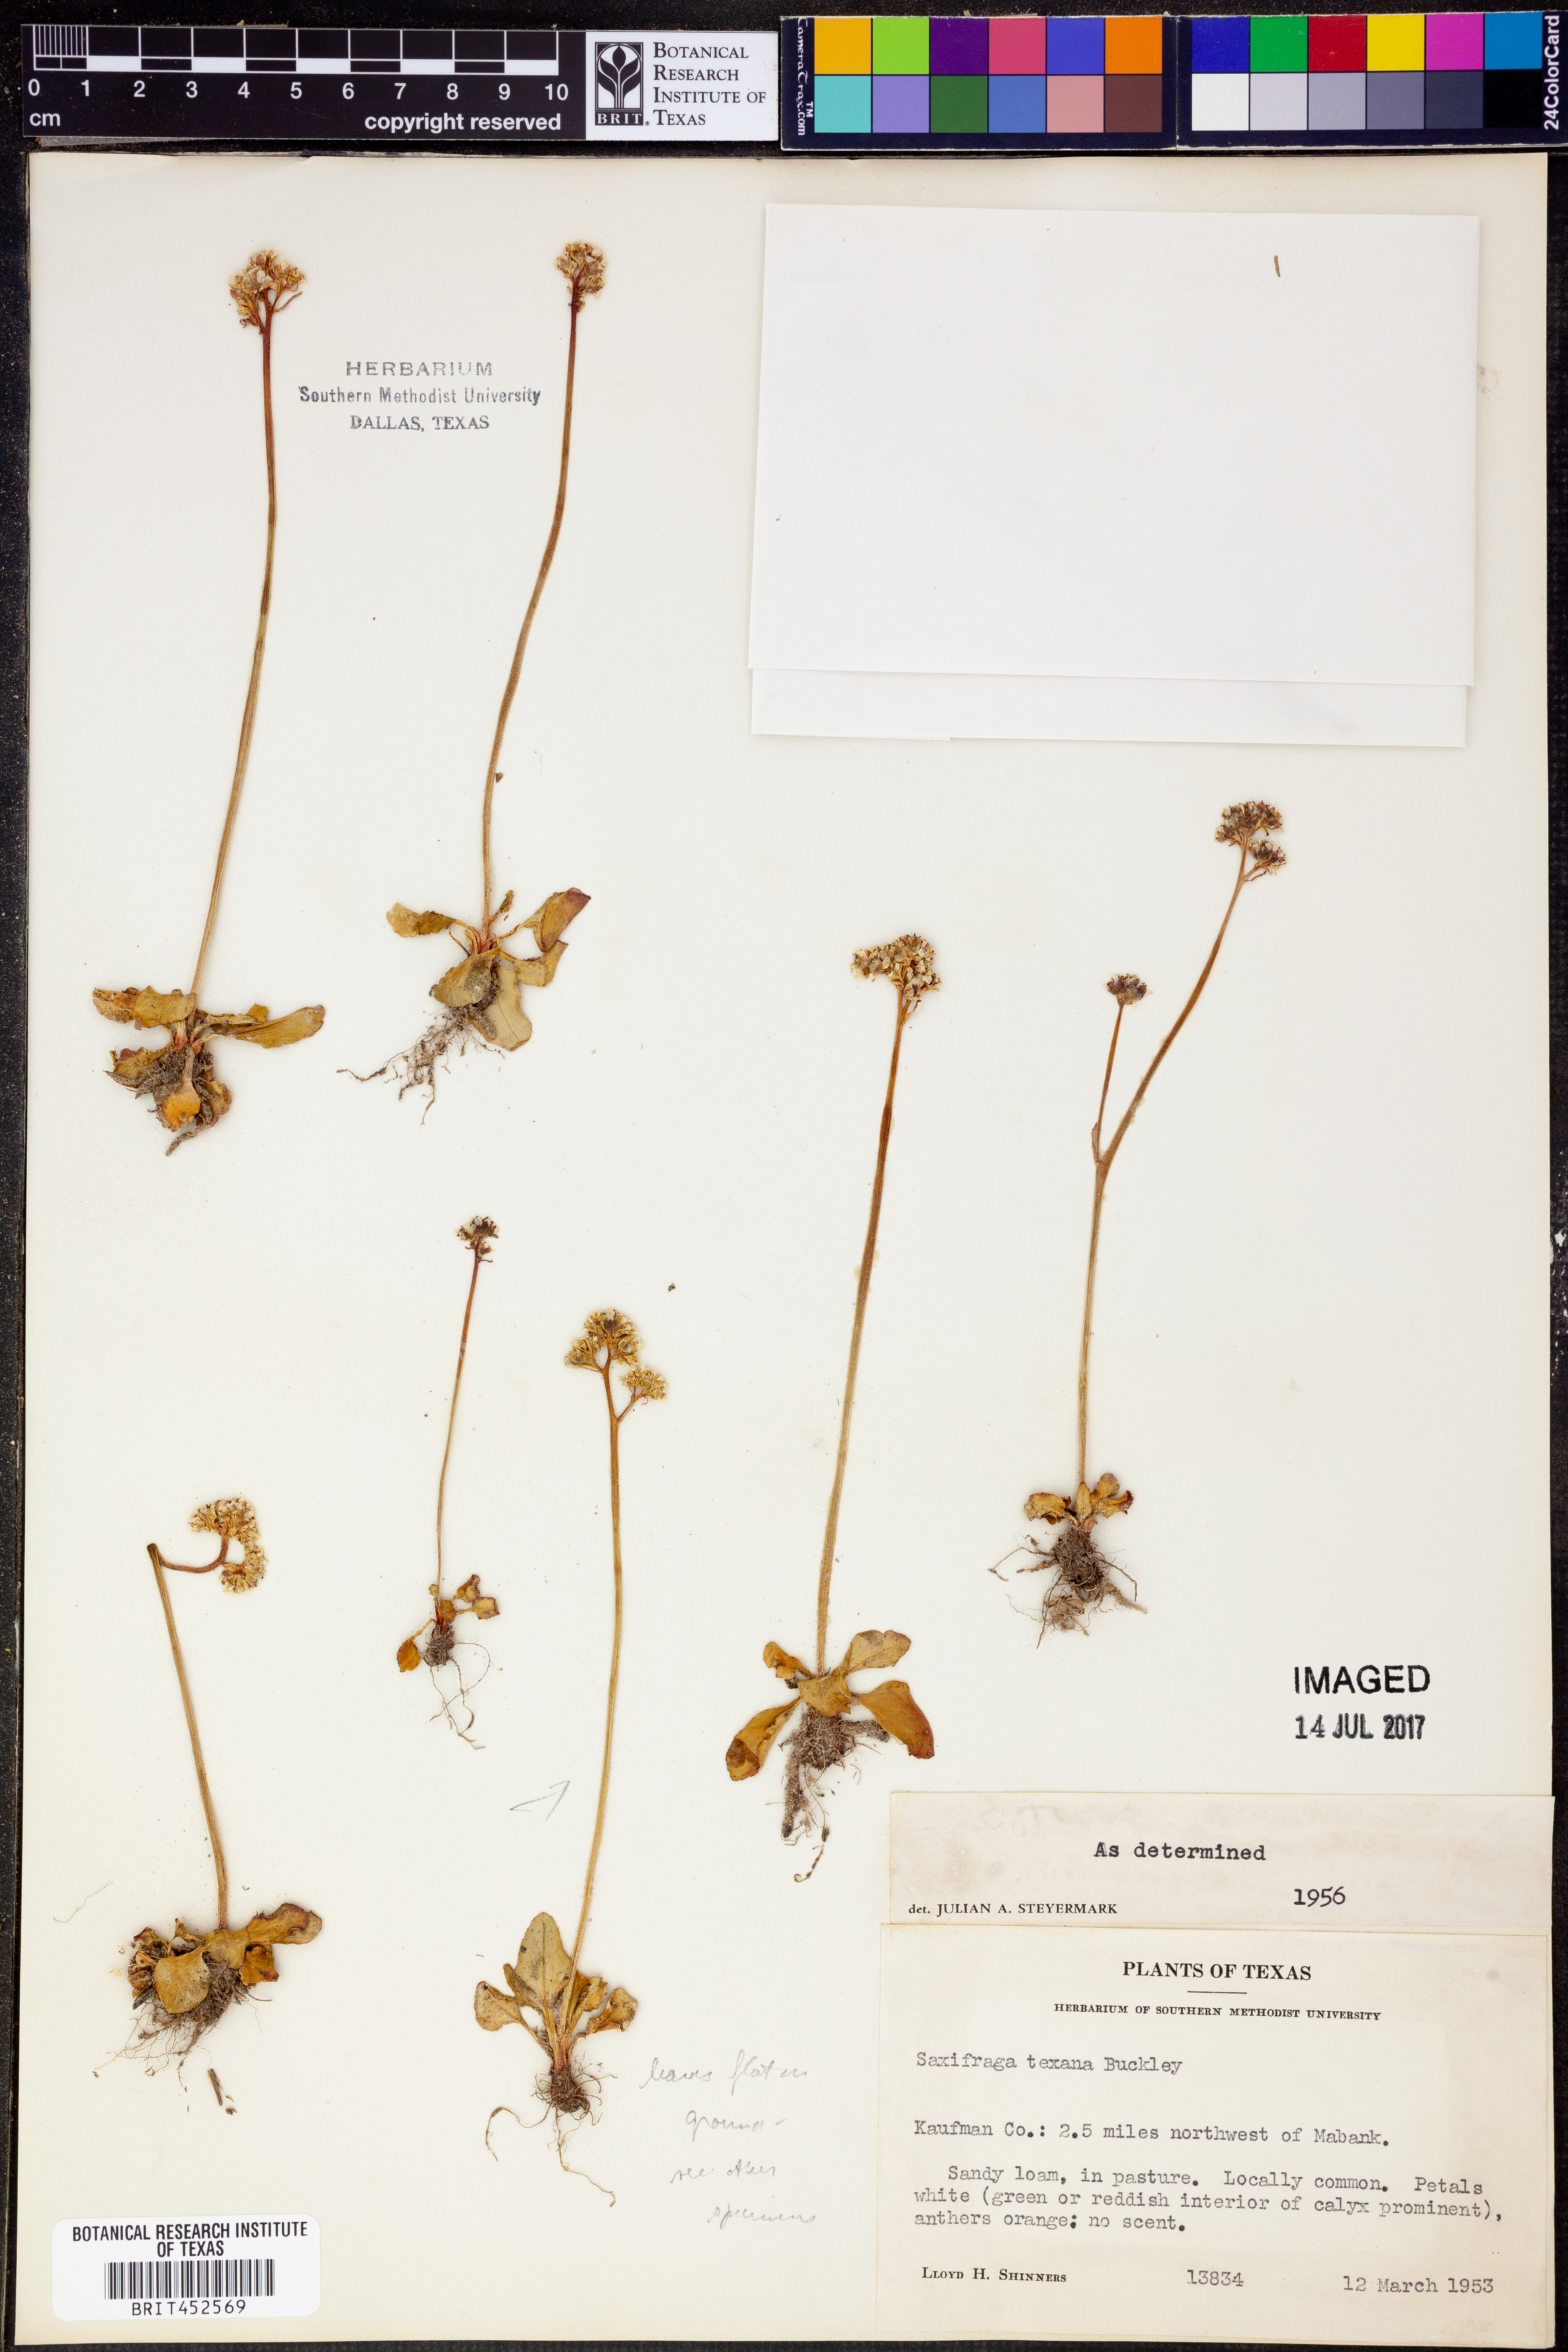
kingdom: Plantae
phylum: Tracheophyta
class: Magnoliopsida
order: Saxifragales
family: Saxifragaceae
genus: Micranthes
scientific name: Micranthes texana
